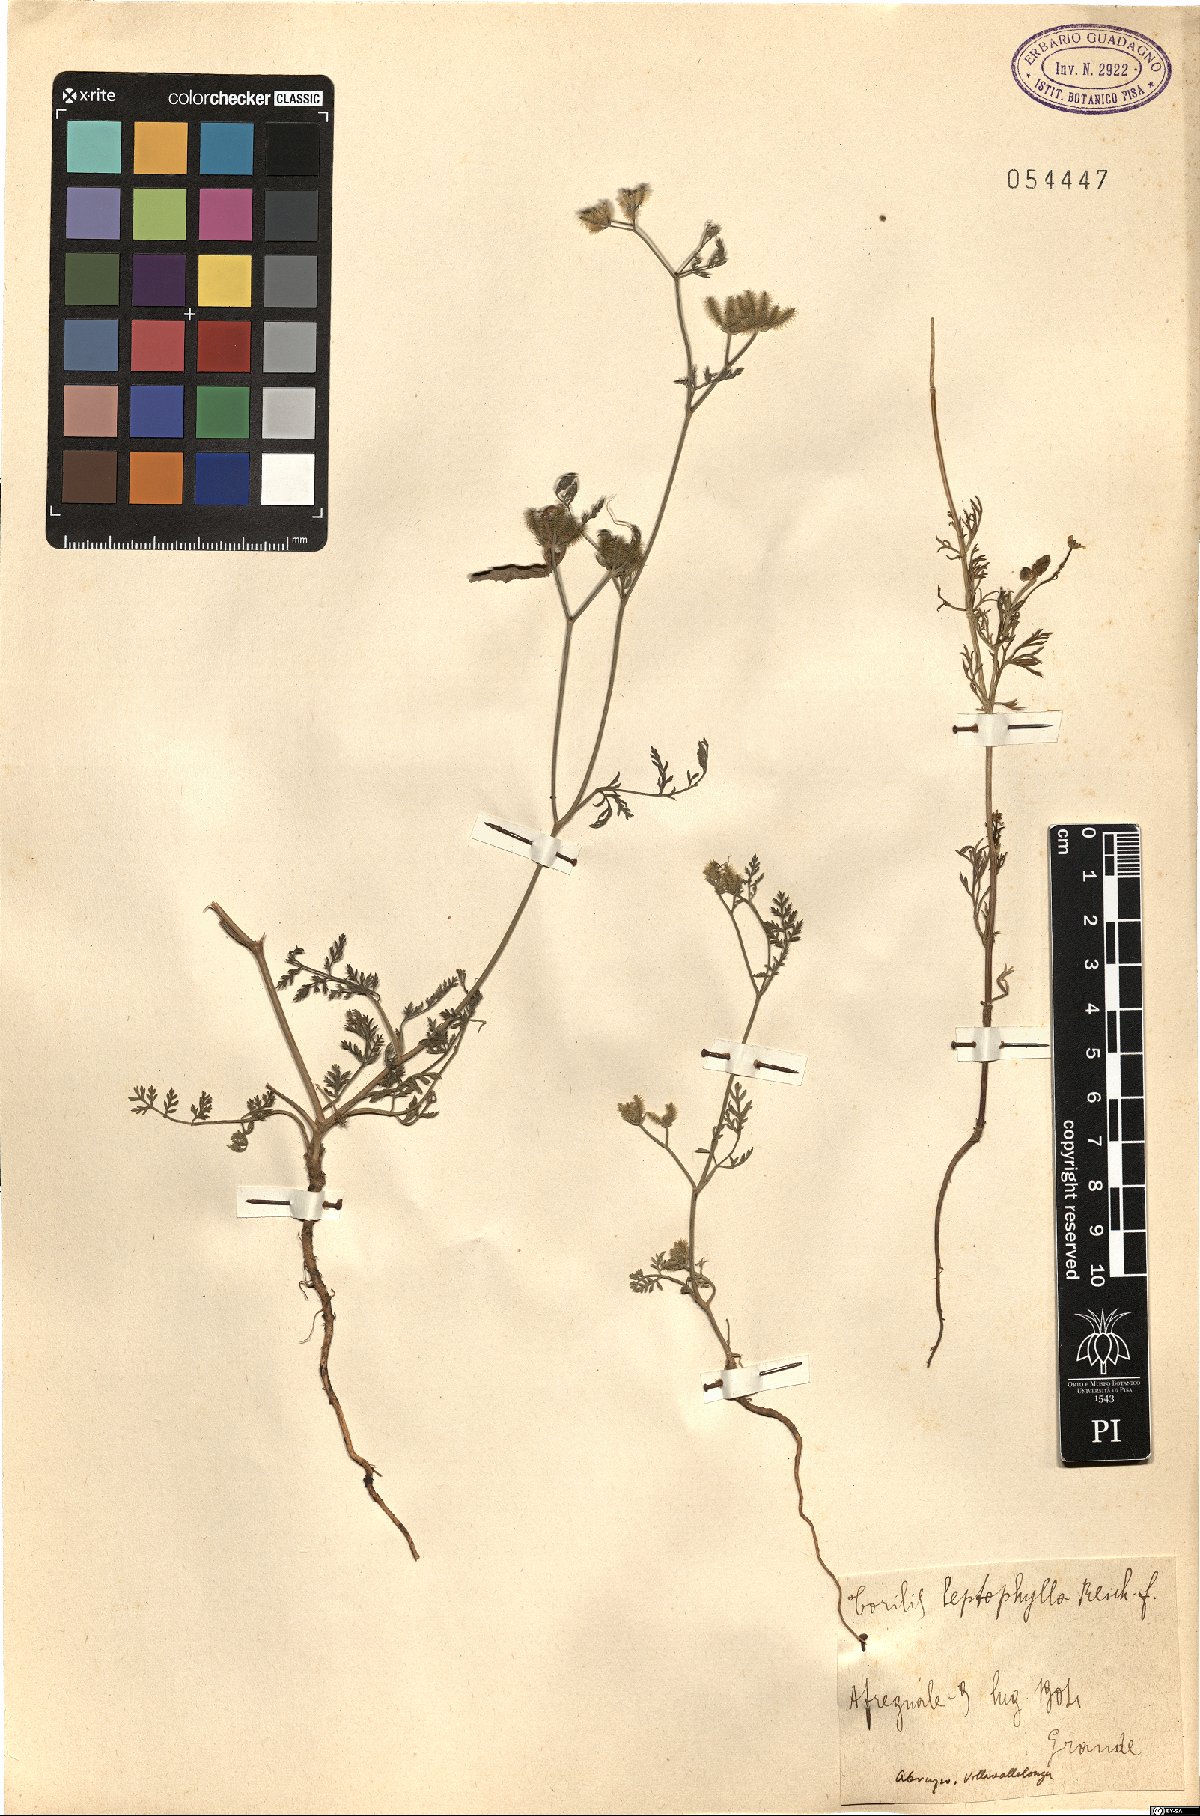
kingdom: Plantae
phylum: Tracheophyta
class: Magnoliopsida
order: Apiales
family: Apiaceae
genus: Torilis
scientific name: Torilis leptophylla
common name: Bristlefruit hedgeparsley
